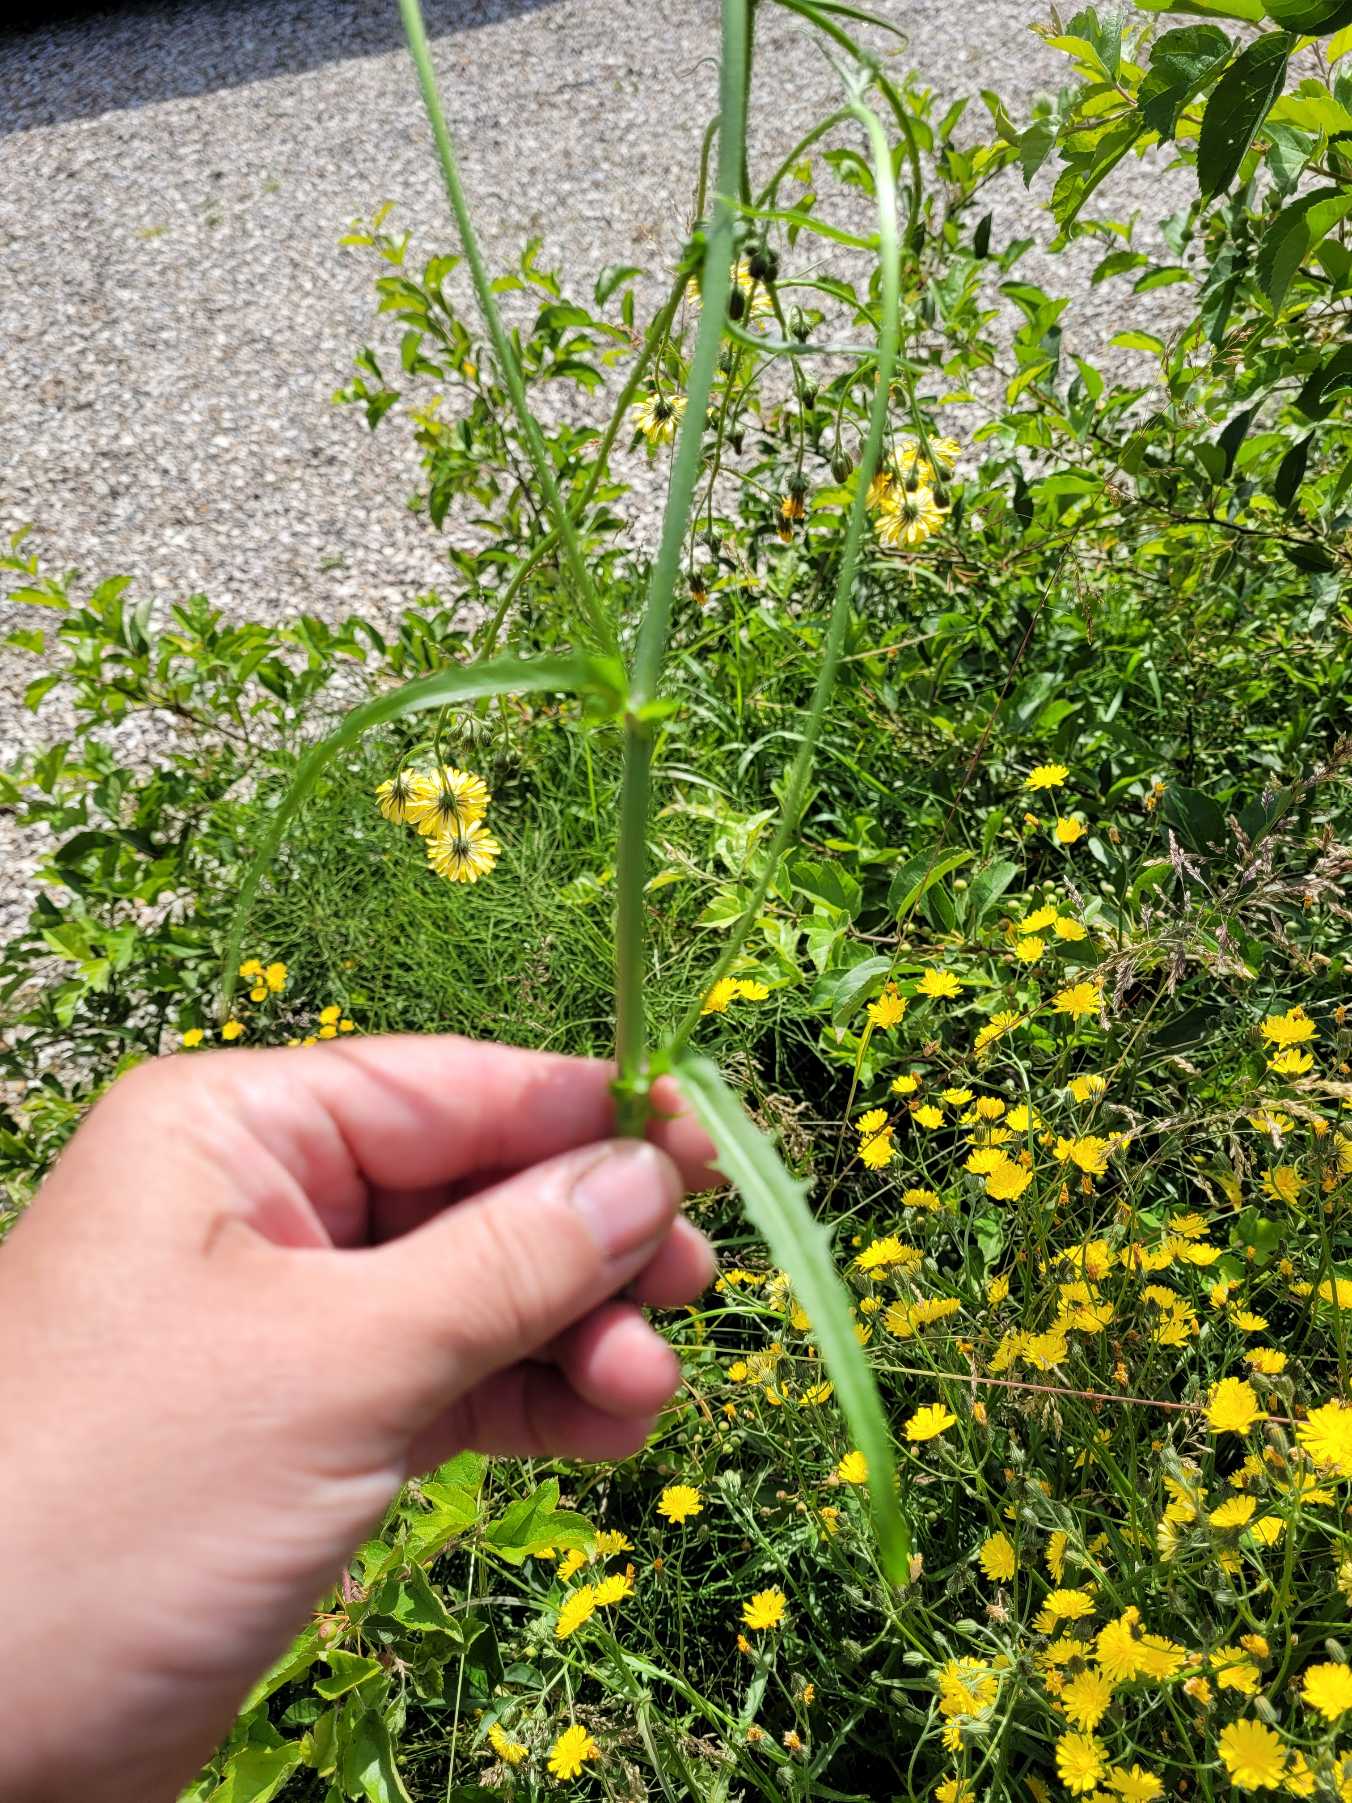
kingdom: Plantae
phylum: Tracheophyta
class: Magnoliopsida
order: Asterales
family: Asteraceae
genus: Crepis
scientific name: Crepis
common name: Høgeskægslægten
